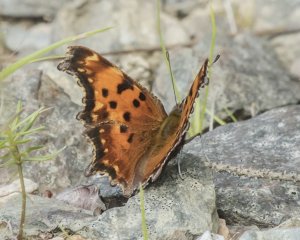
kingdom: Animalia
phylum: Arthropoda
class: Insecta
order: Lepidoptera
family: Nymphalidae
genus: Polygonia
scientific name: Polygonia progne
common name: Gray Comma
